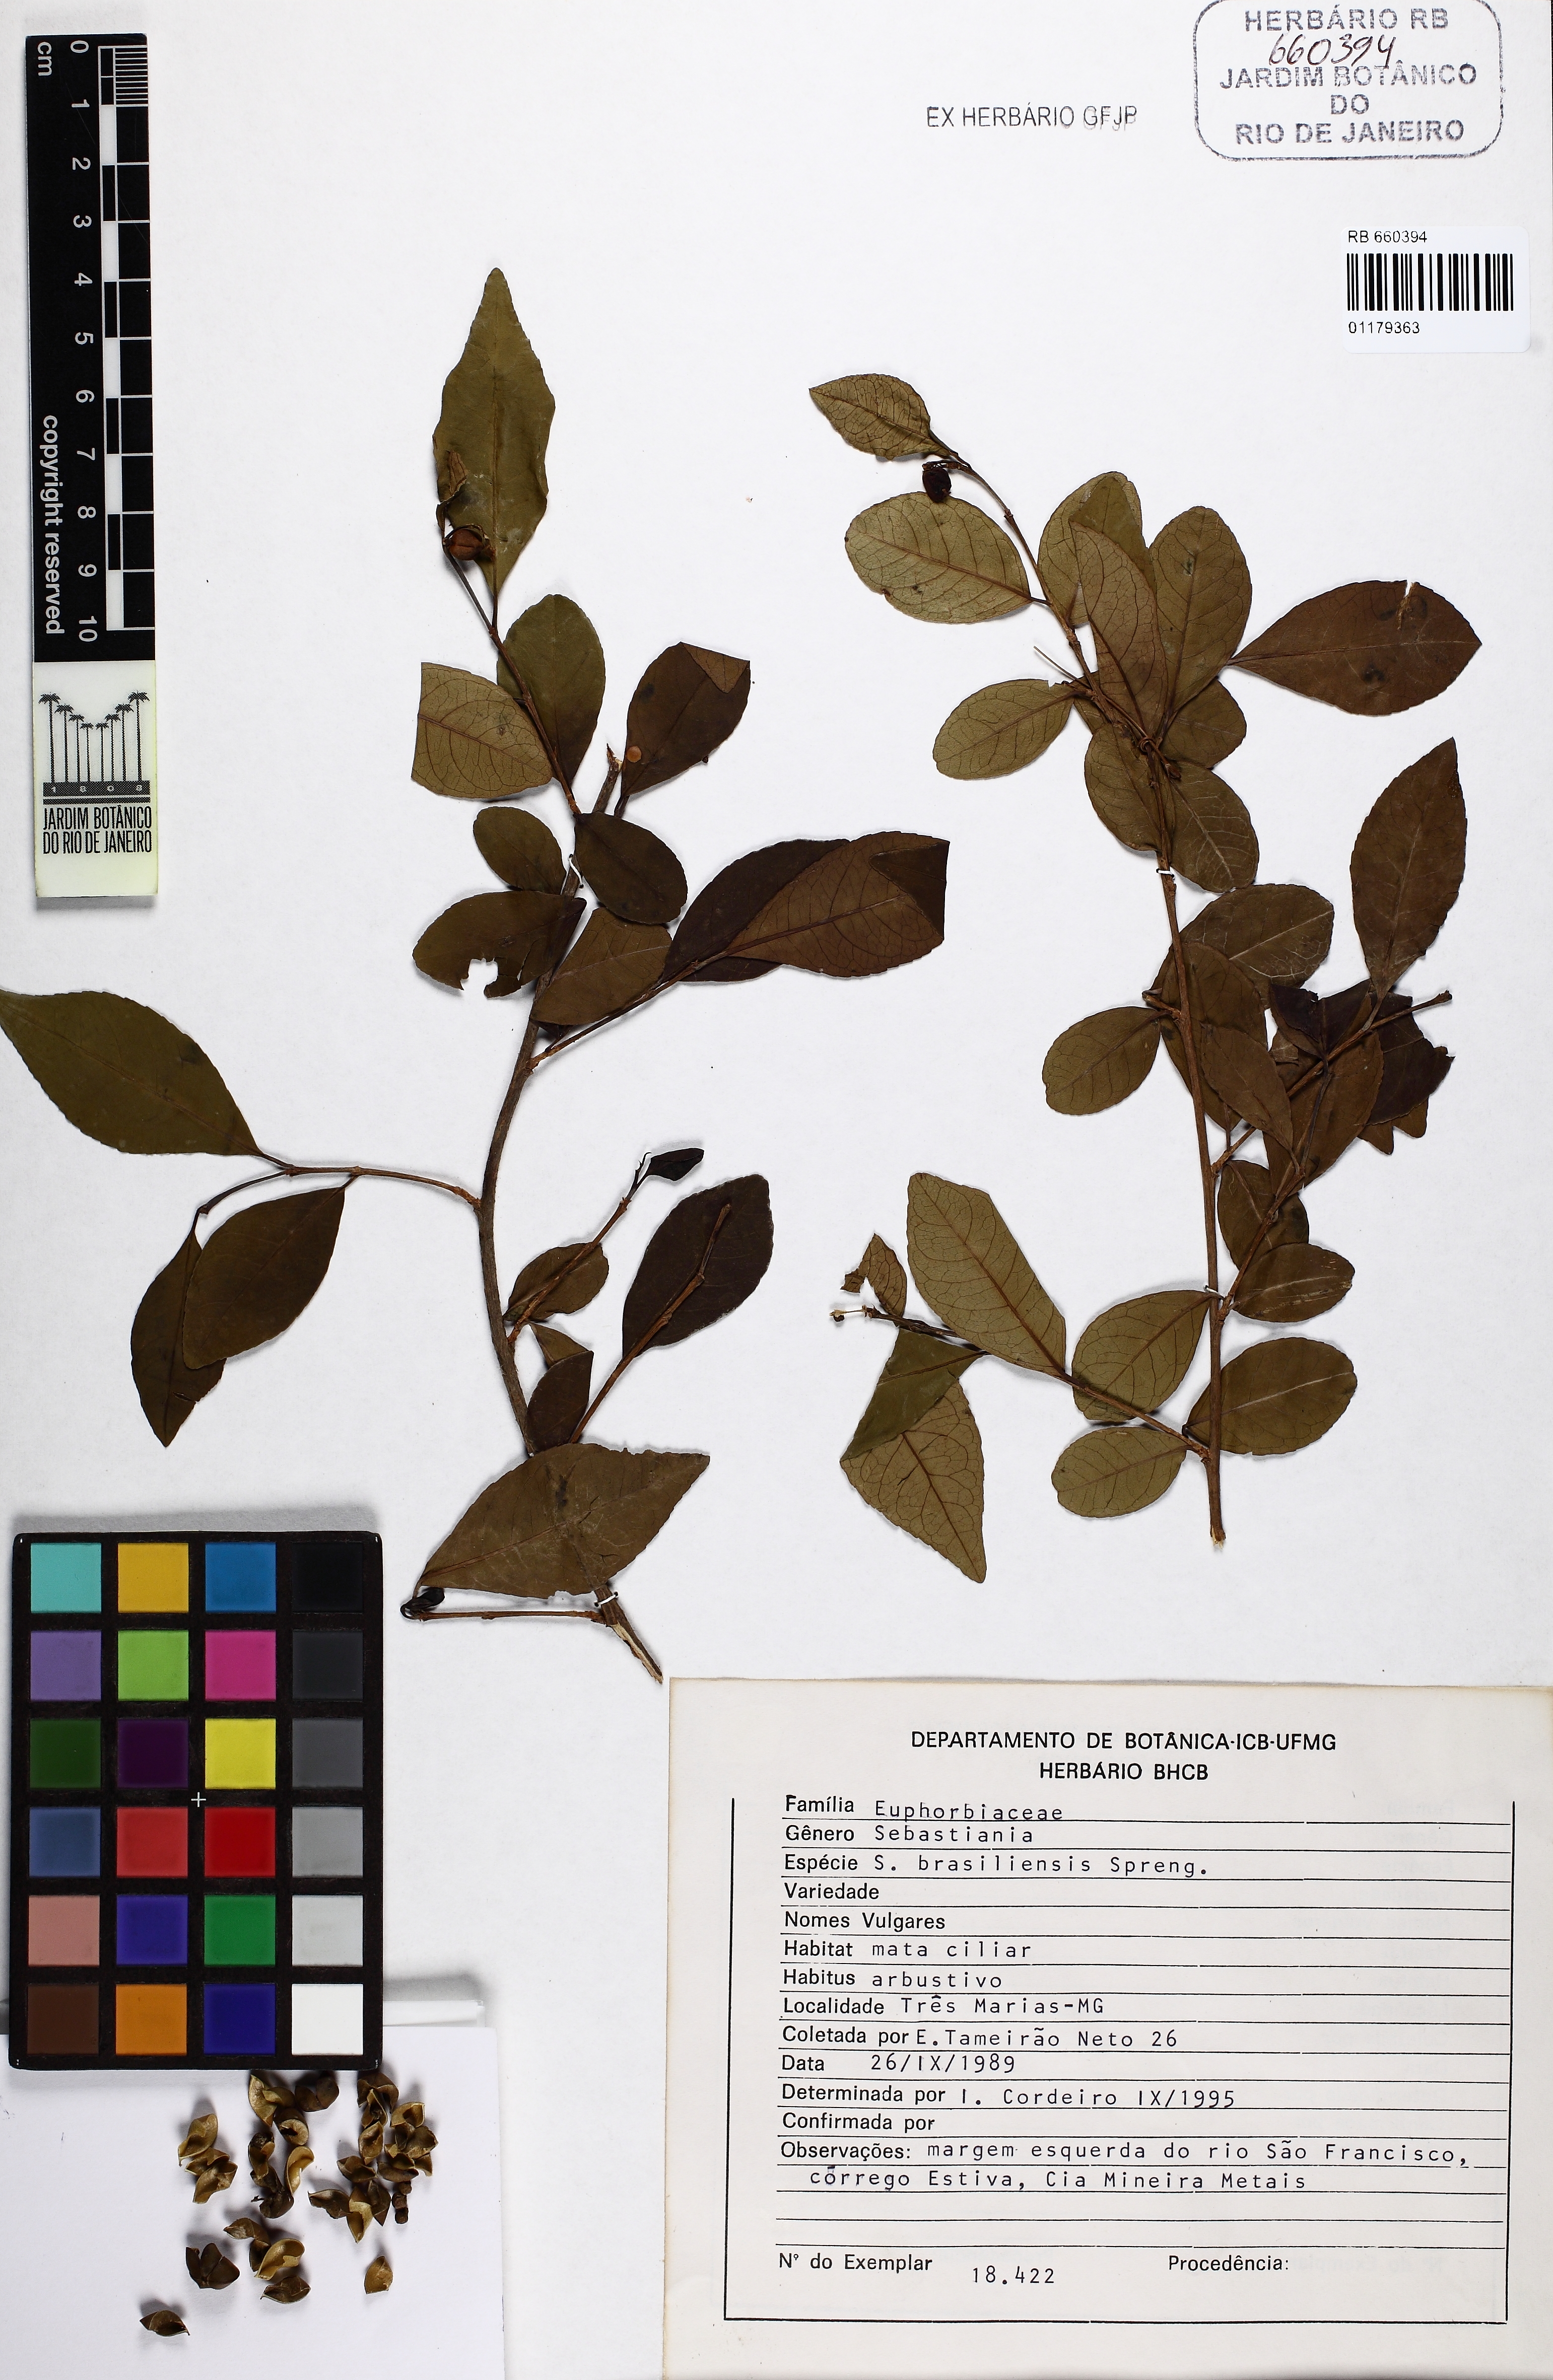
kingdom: Plantae
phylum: Tracheophyta
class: Magnoliopsida
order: Malpighiales
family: Euphorbiaceae
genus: Sebastiania
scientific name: Sebastiania brasiliensis
